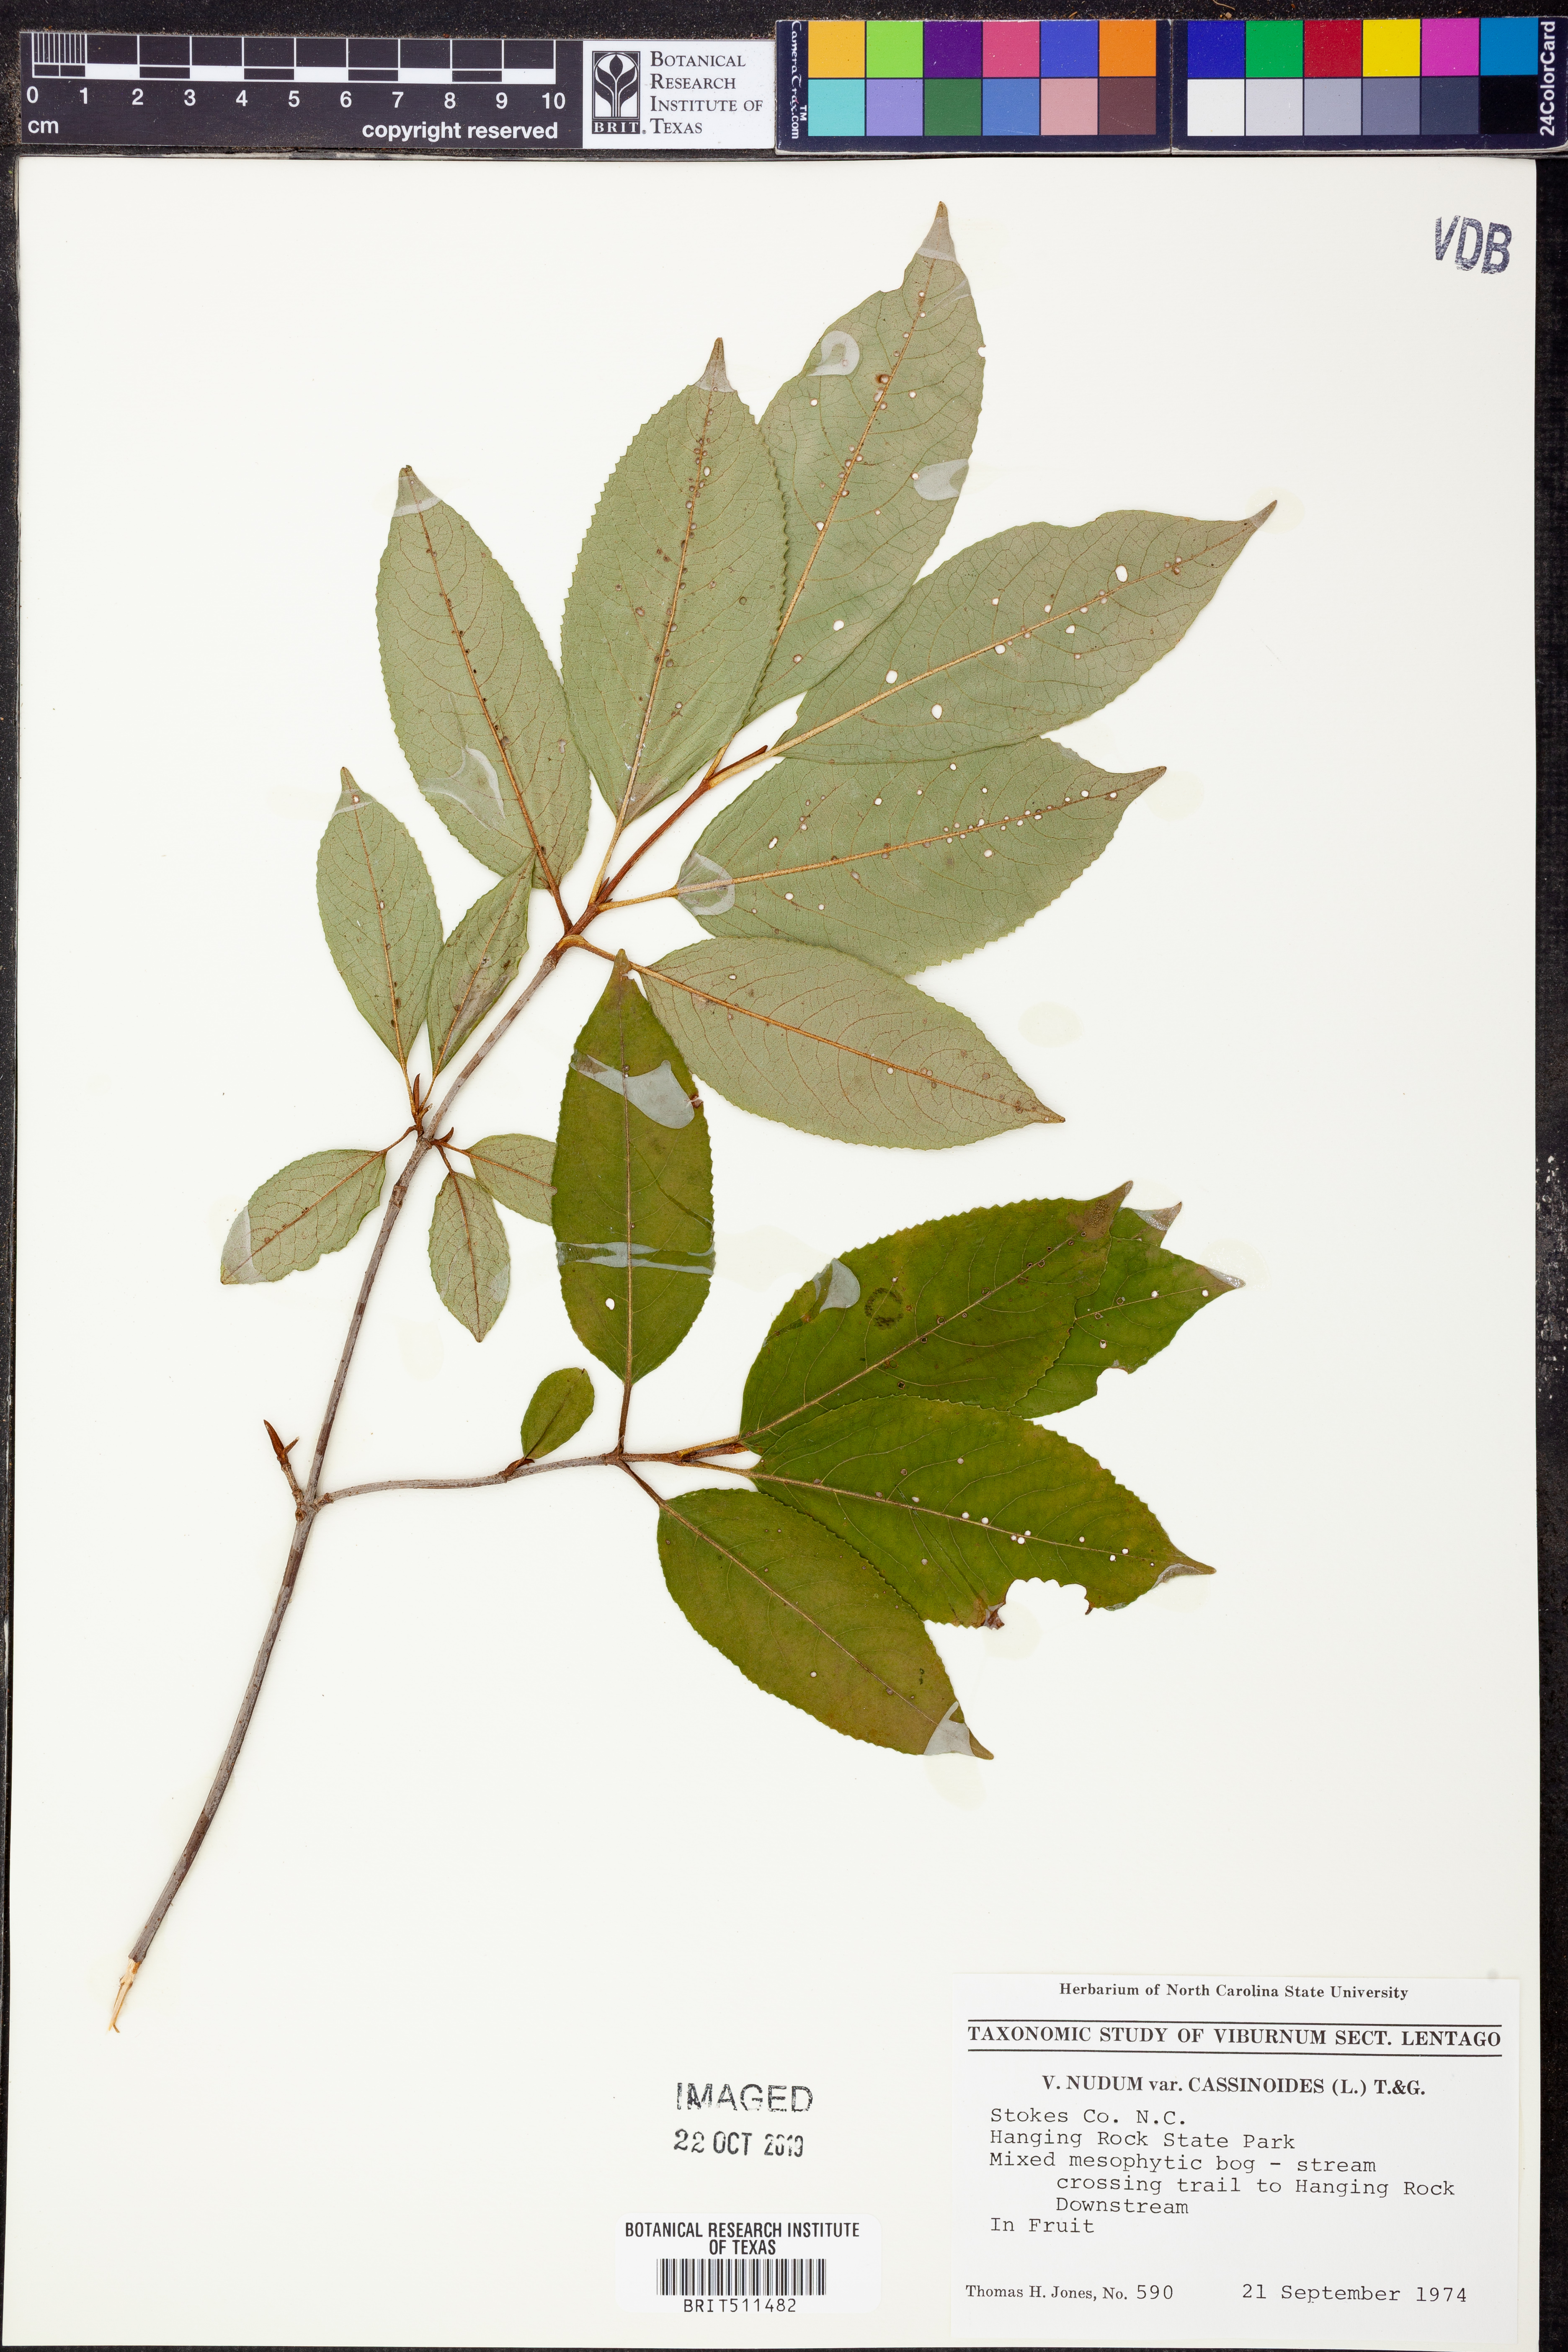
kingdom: Plantae
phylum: Tracheophyta
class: Magnoliopsida
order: Dipsacales
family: Viburnaceae
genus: Viburnum
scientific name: Viburnum cassinoides
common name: Swamp haw
